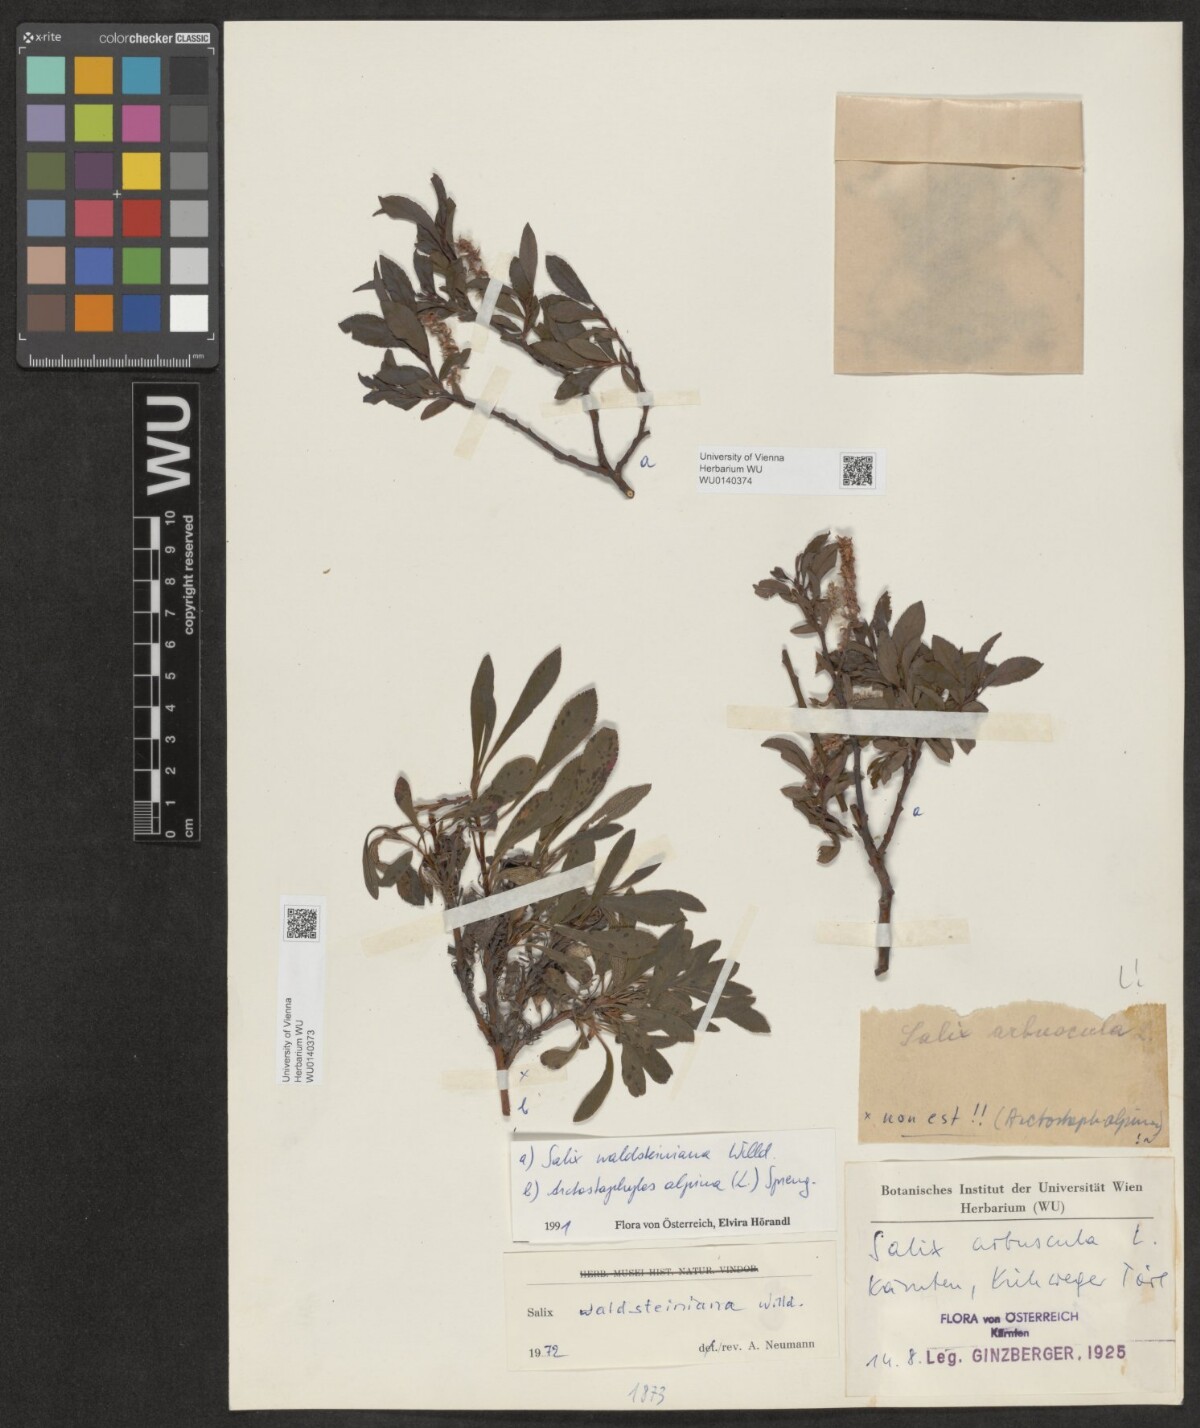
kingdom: Plantae
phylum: Tracheophyta
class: Magnoliopsida
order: Malpighiales
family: Salicaceae
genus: Salix
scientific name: Salix waldsteiniana
